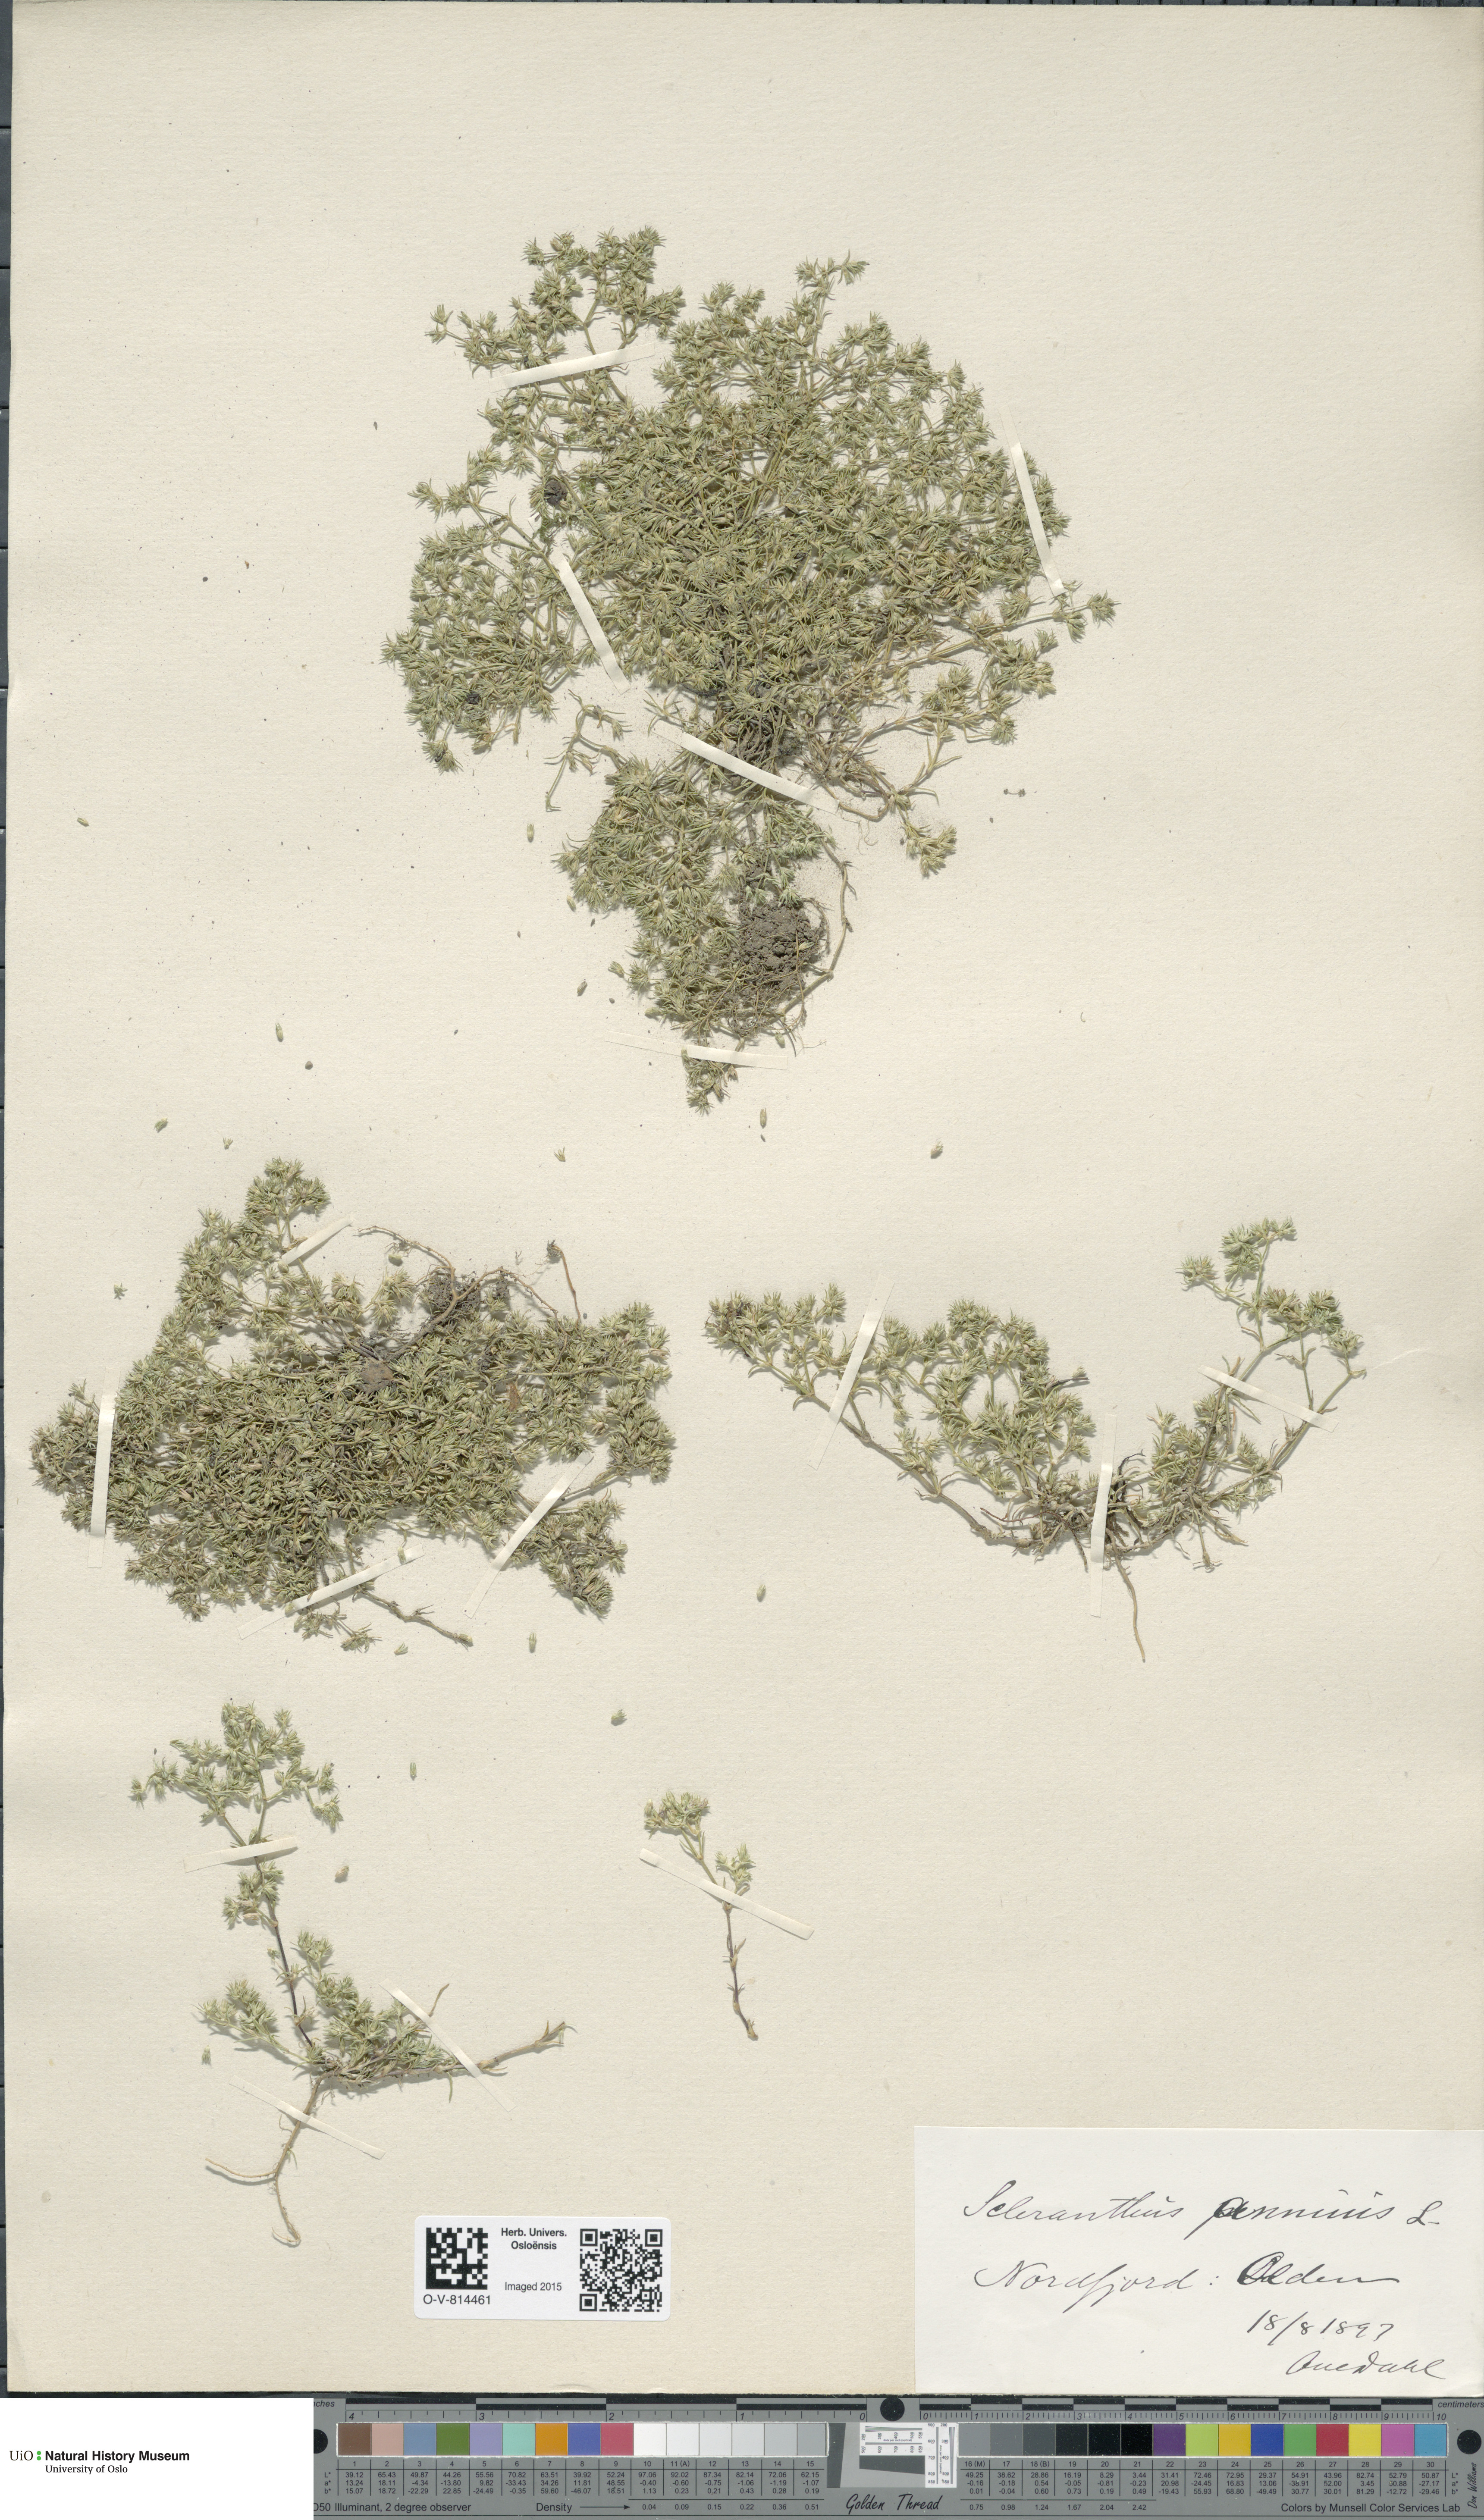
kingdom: Plantae
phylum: Tracheophyta
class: Magnoliopsida
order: Caryophyllales
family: Caryophyllaceae
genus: Scleranthus
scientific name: Scleranthus annuus
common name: Annual knawel
